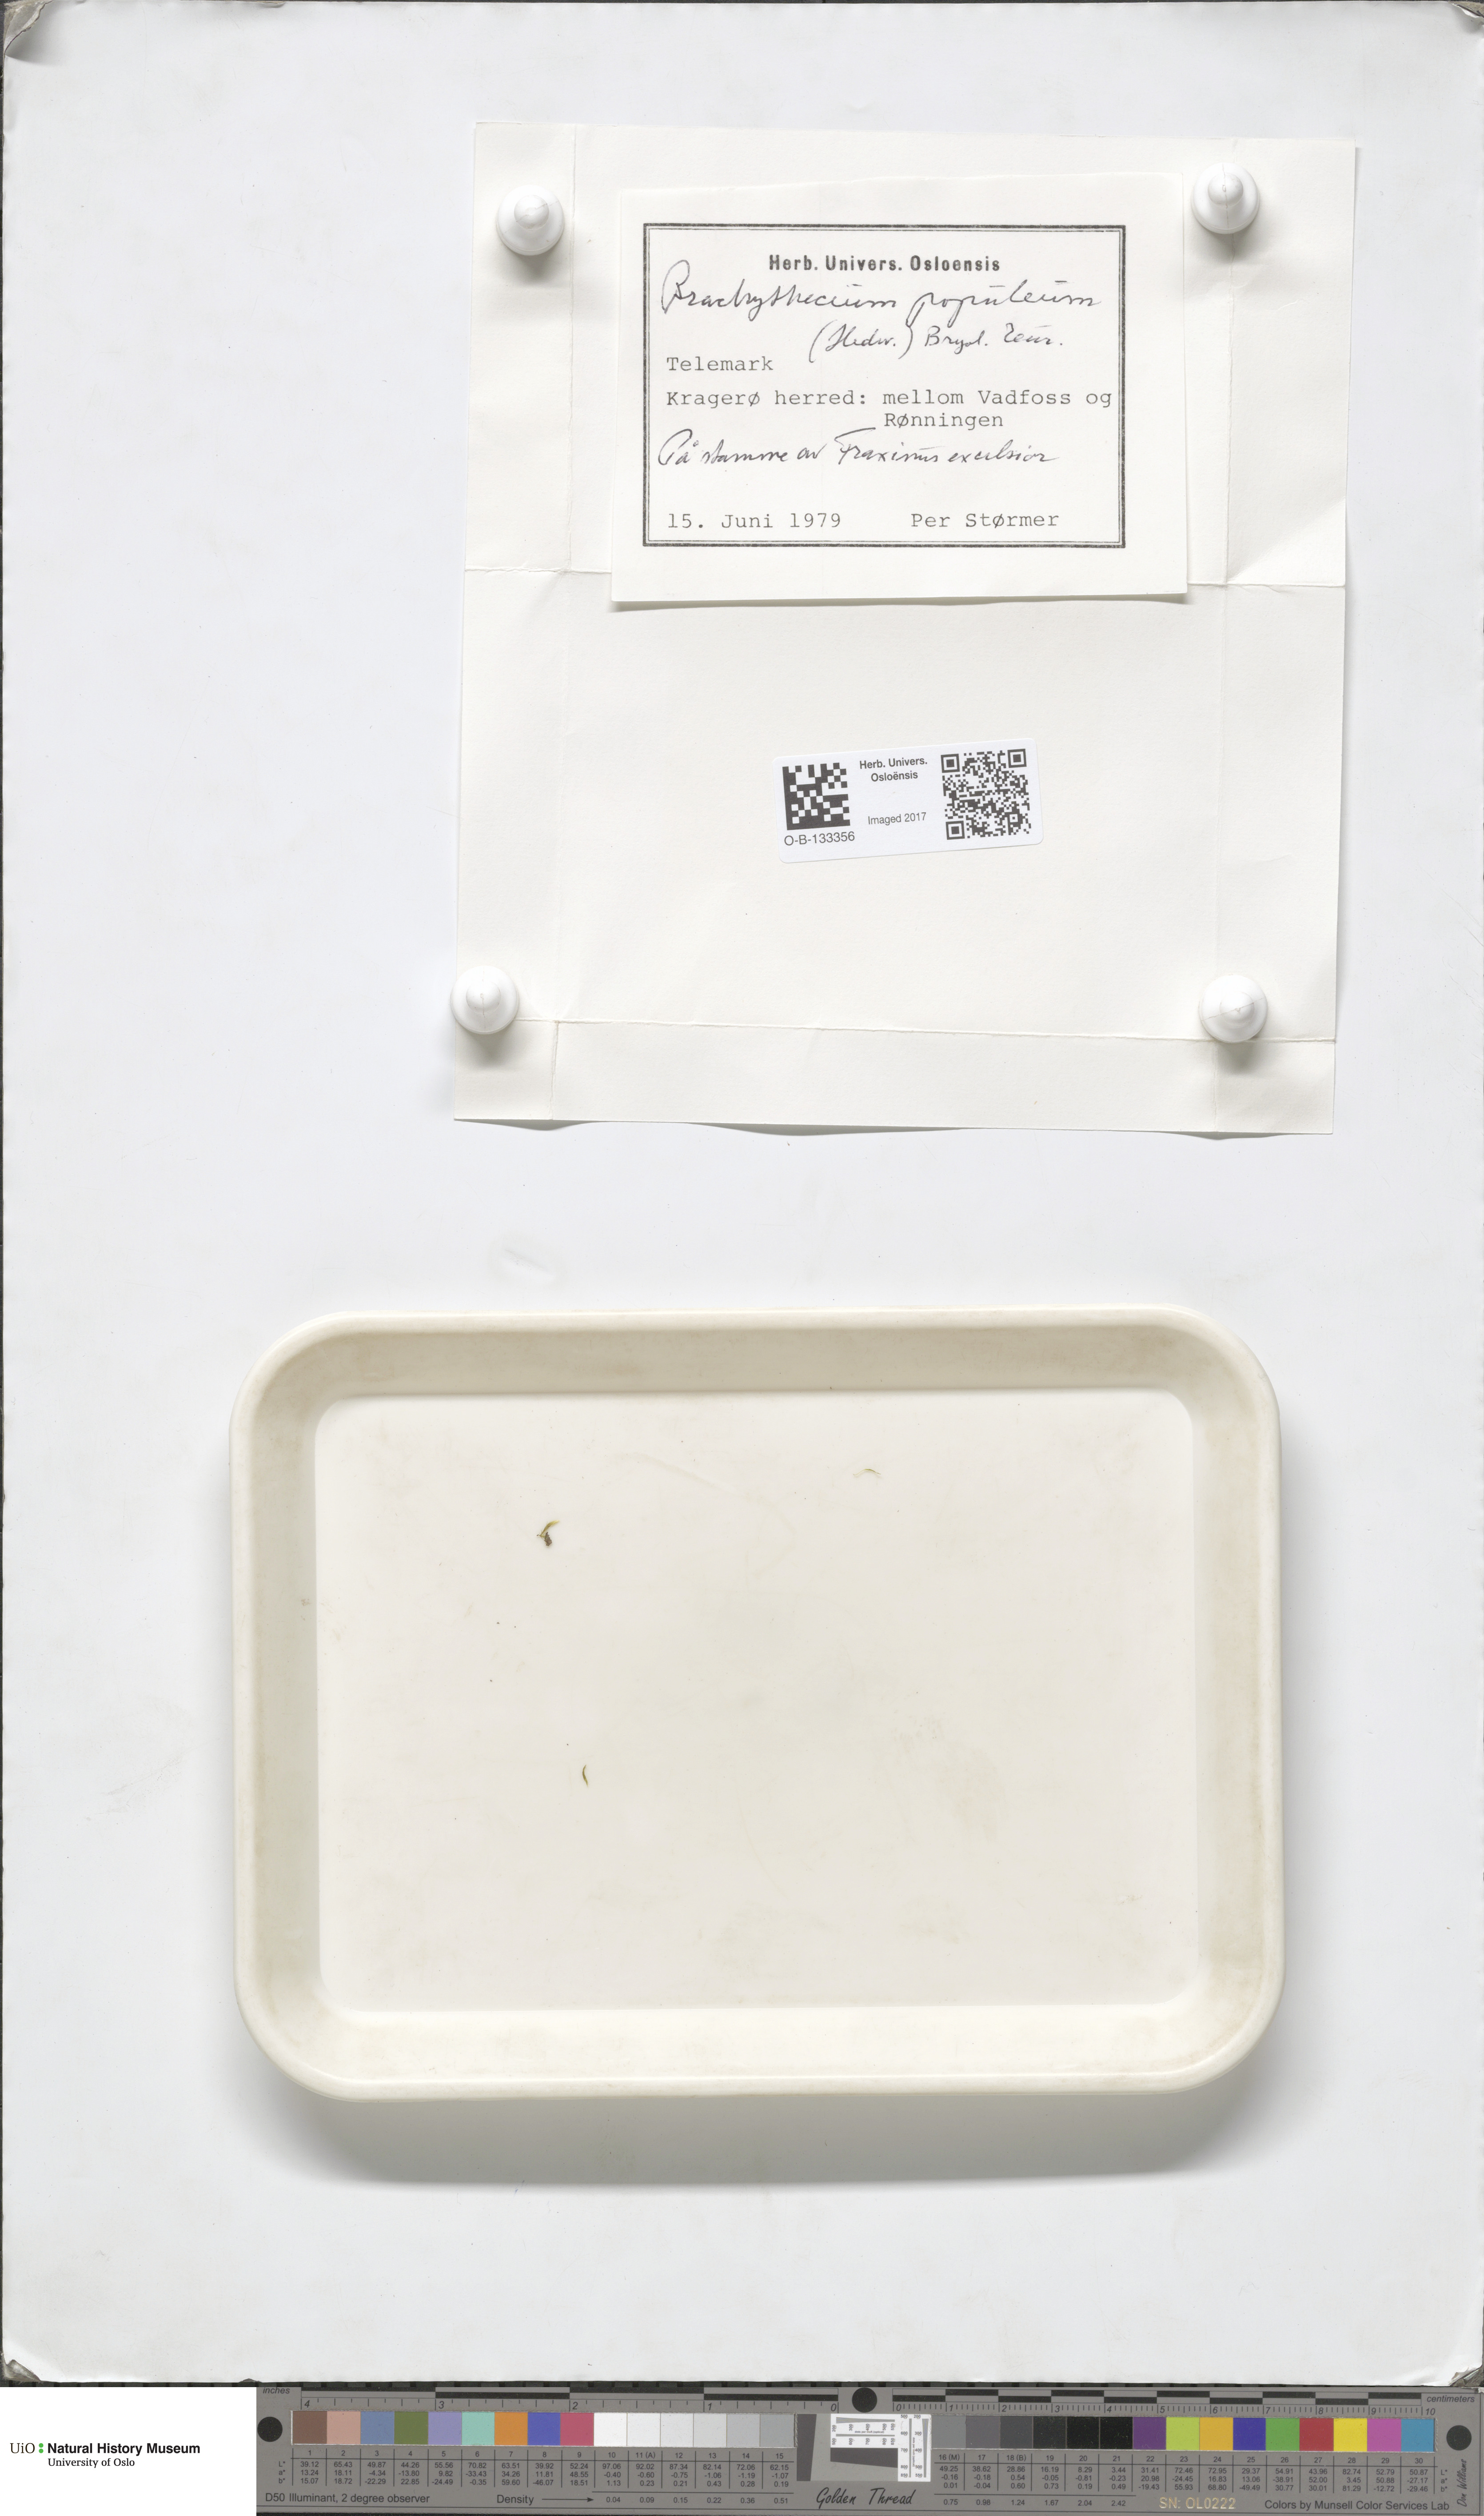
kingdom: Plantae
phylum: Bryophyta
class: Bryopsida
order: Hypnales
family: Brachytheciaceae
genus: Sciuro-hypnum
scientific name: Sciuro-hypnum plumosum
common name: Rusty feather-moss
